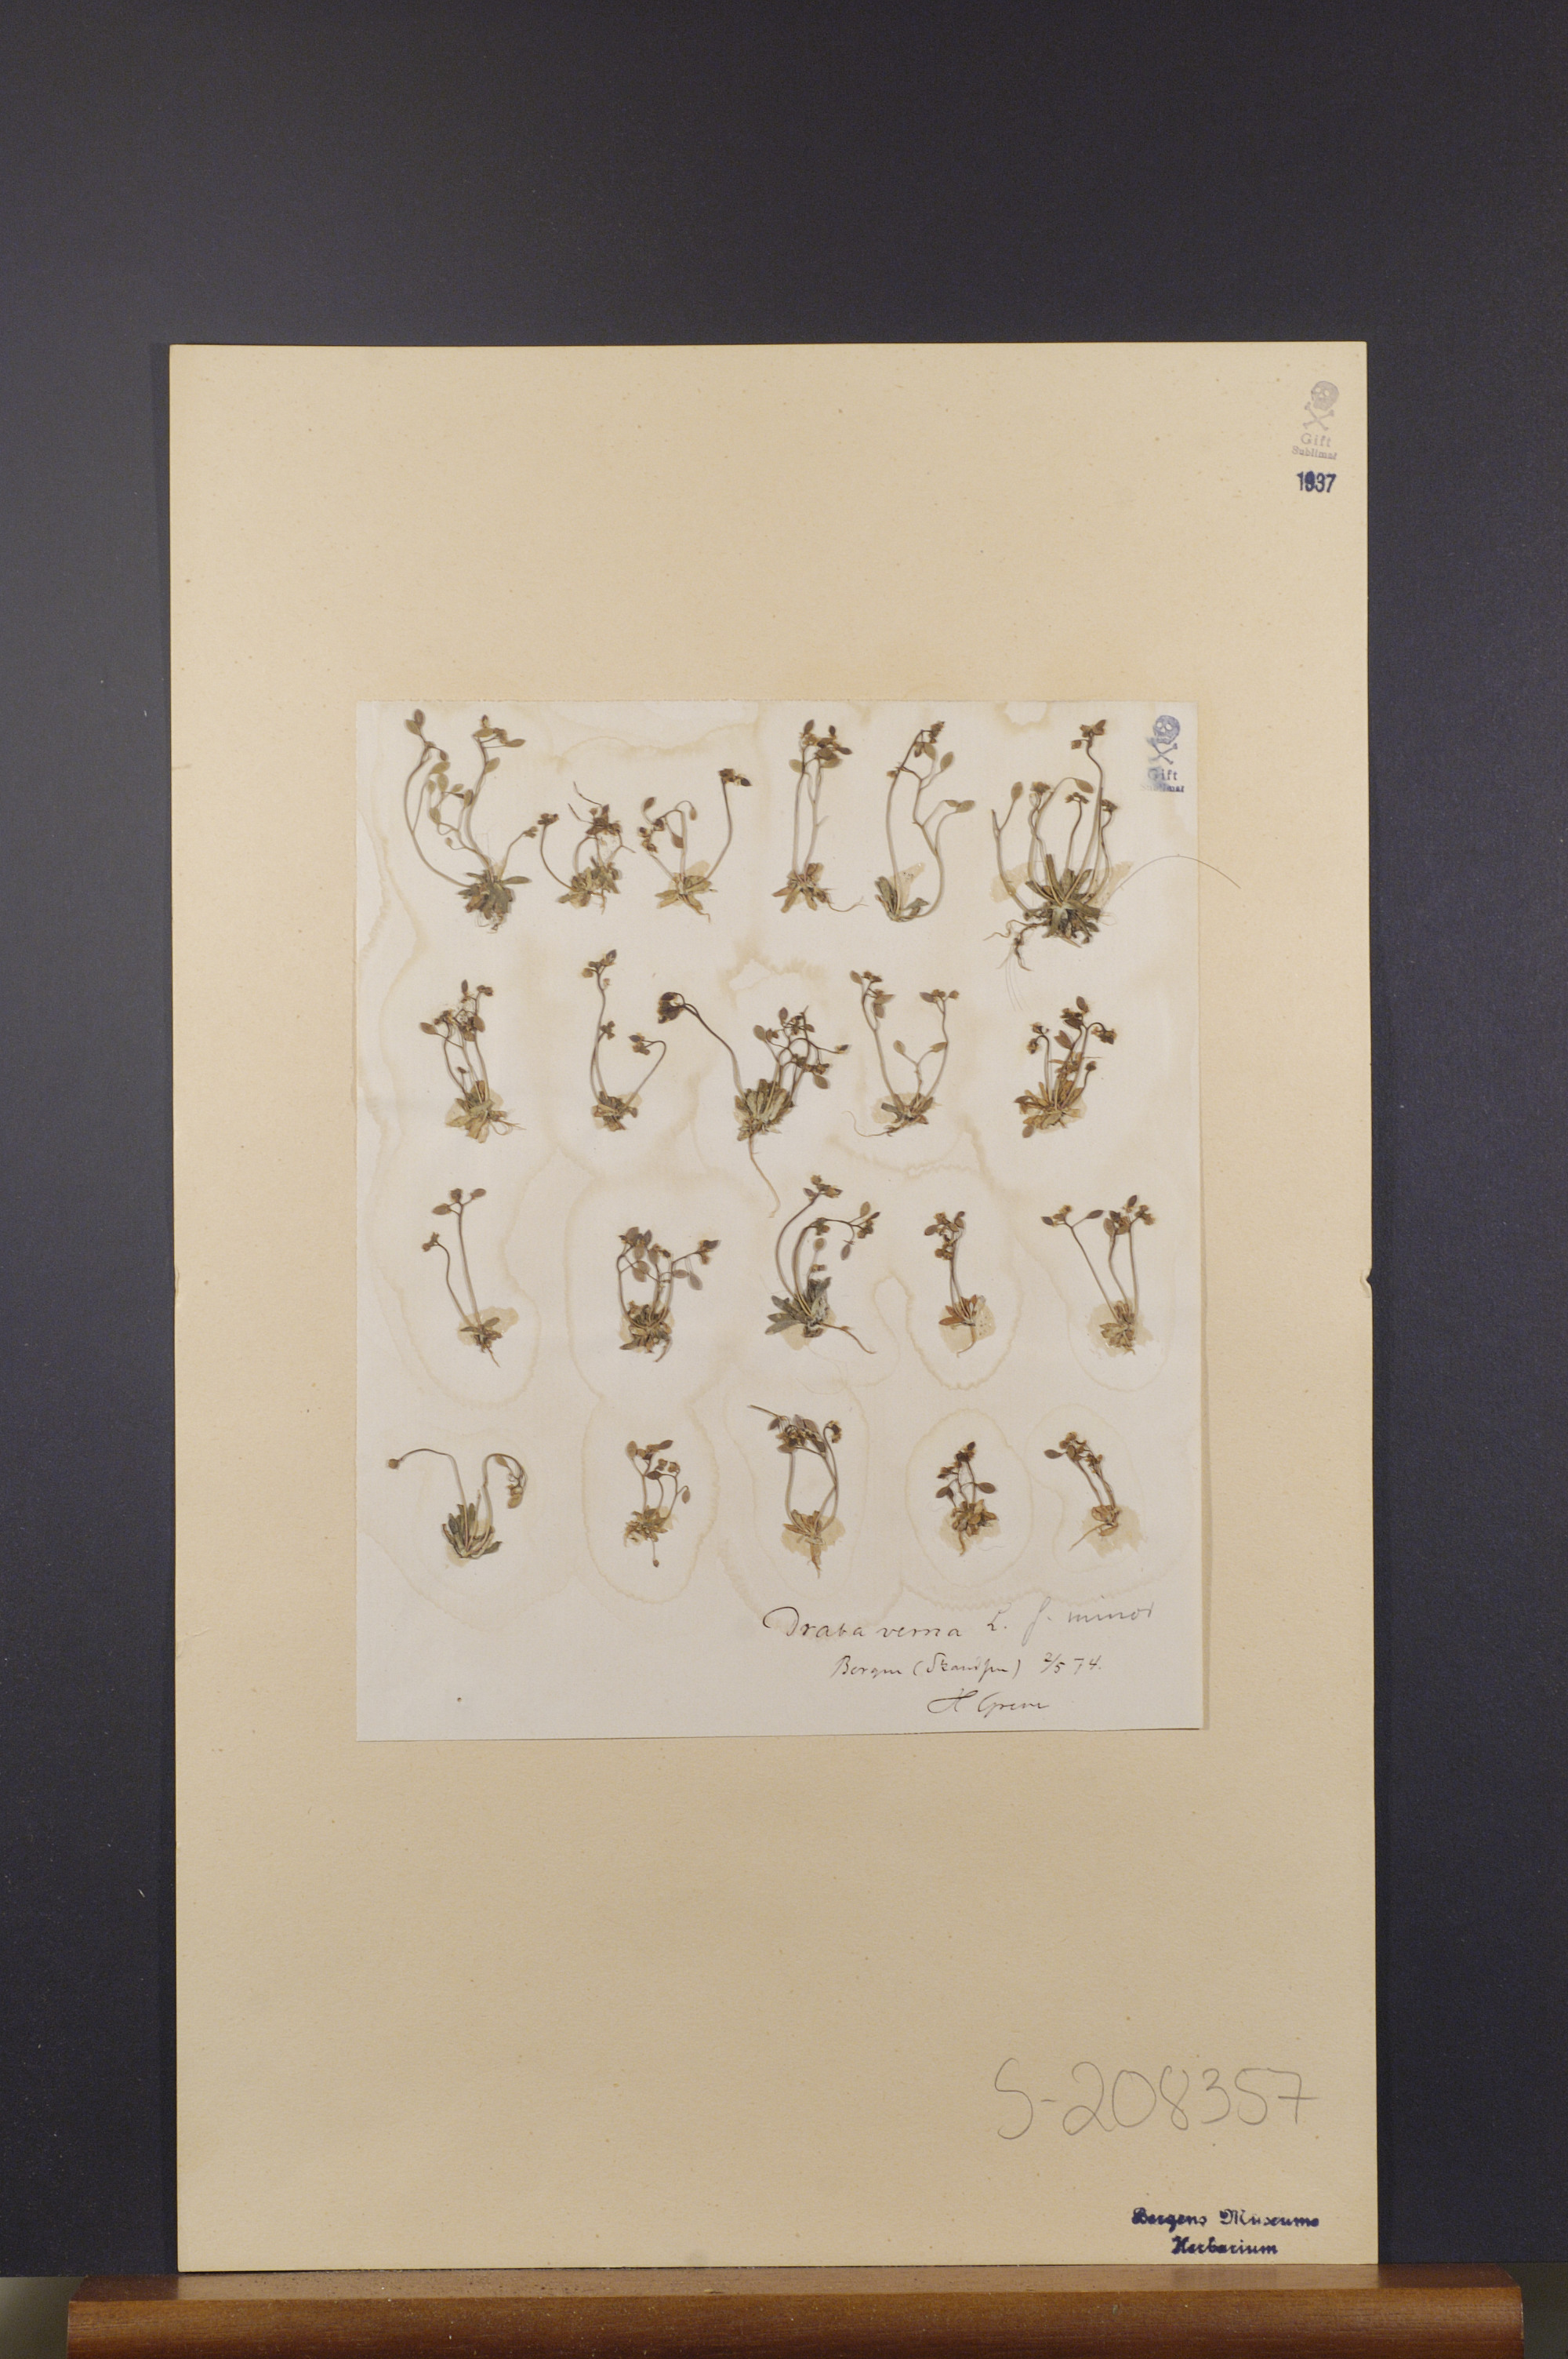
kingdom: Plantae
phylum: Tracheophyta
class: Magnoliopsida
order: Brassicales
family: Brassicaceae
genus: Draba
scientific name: Draba verna
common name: Spring draba
